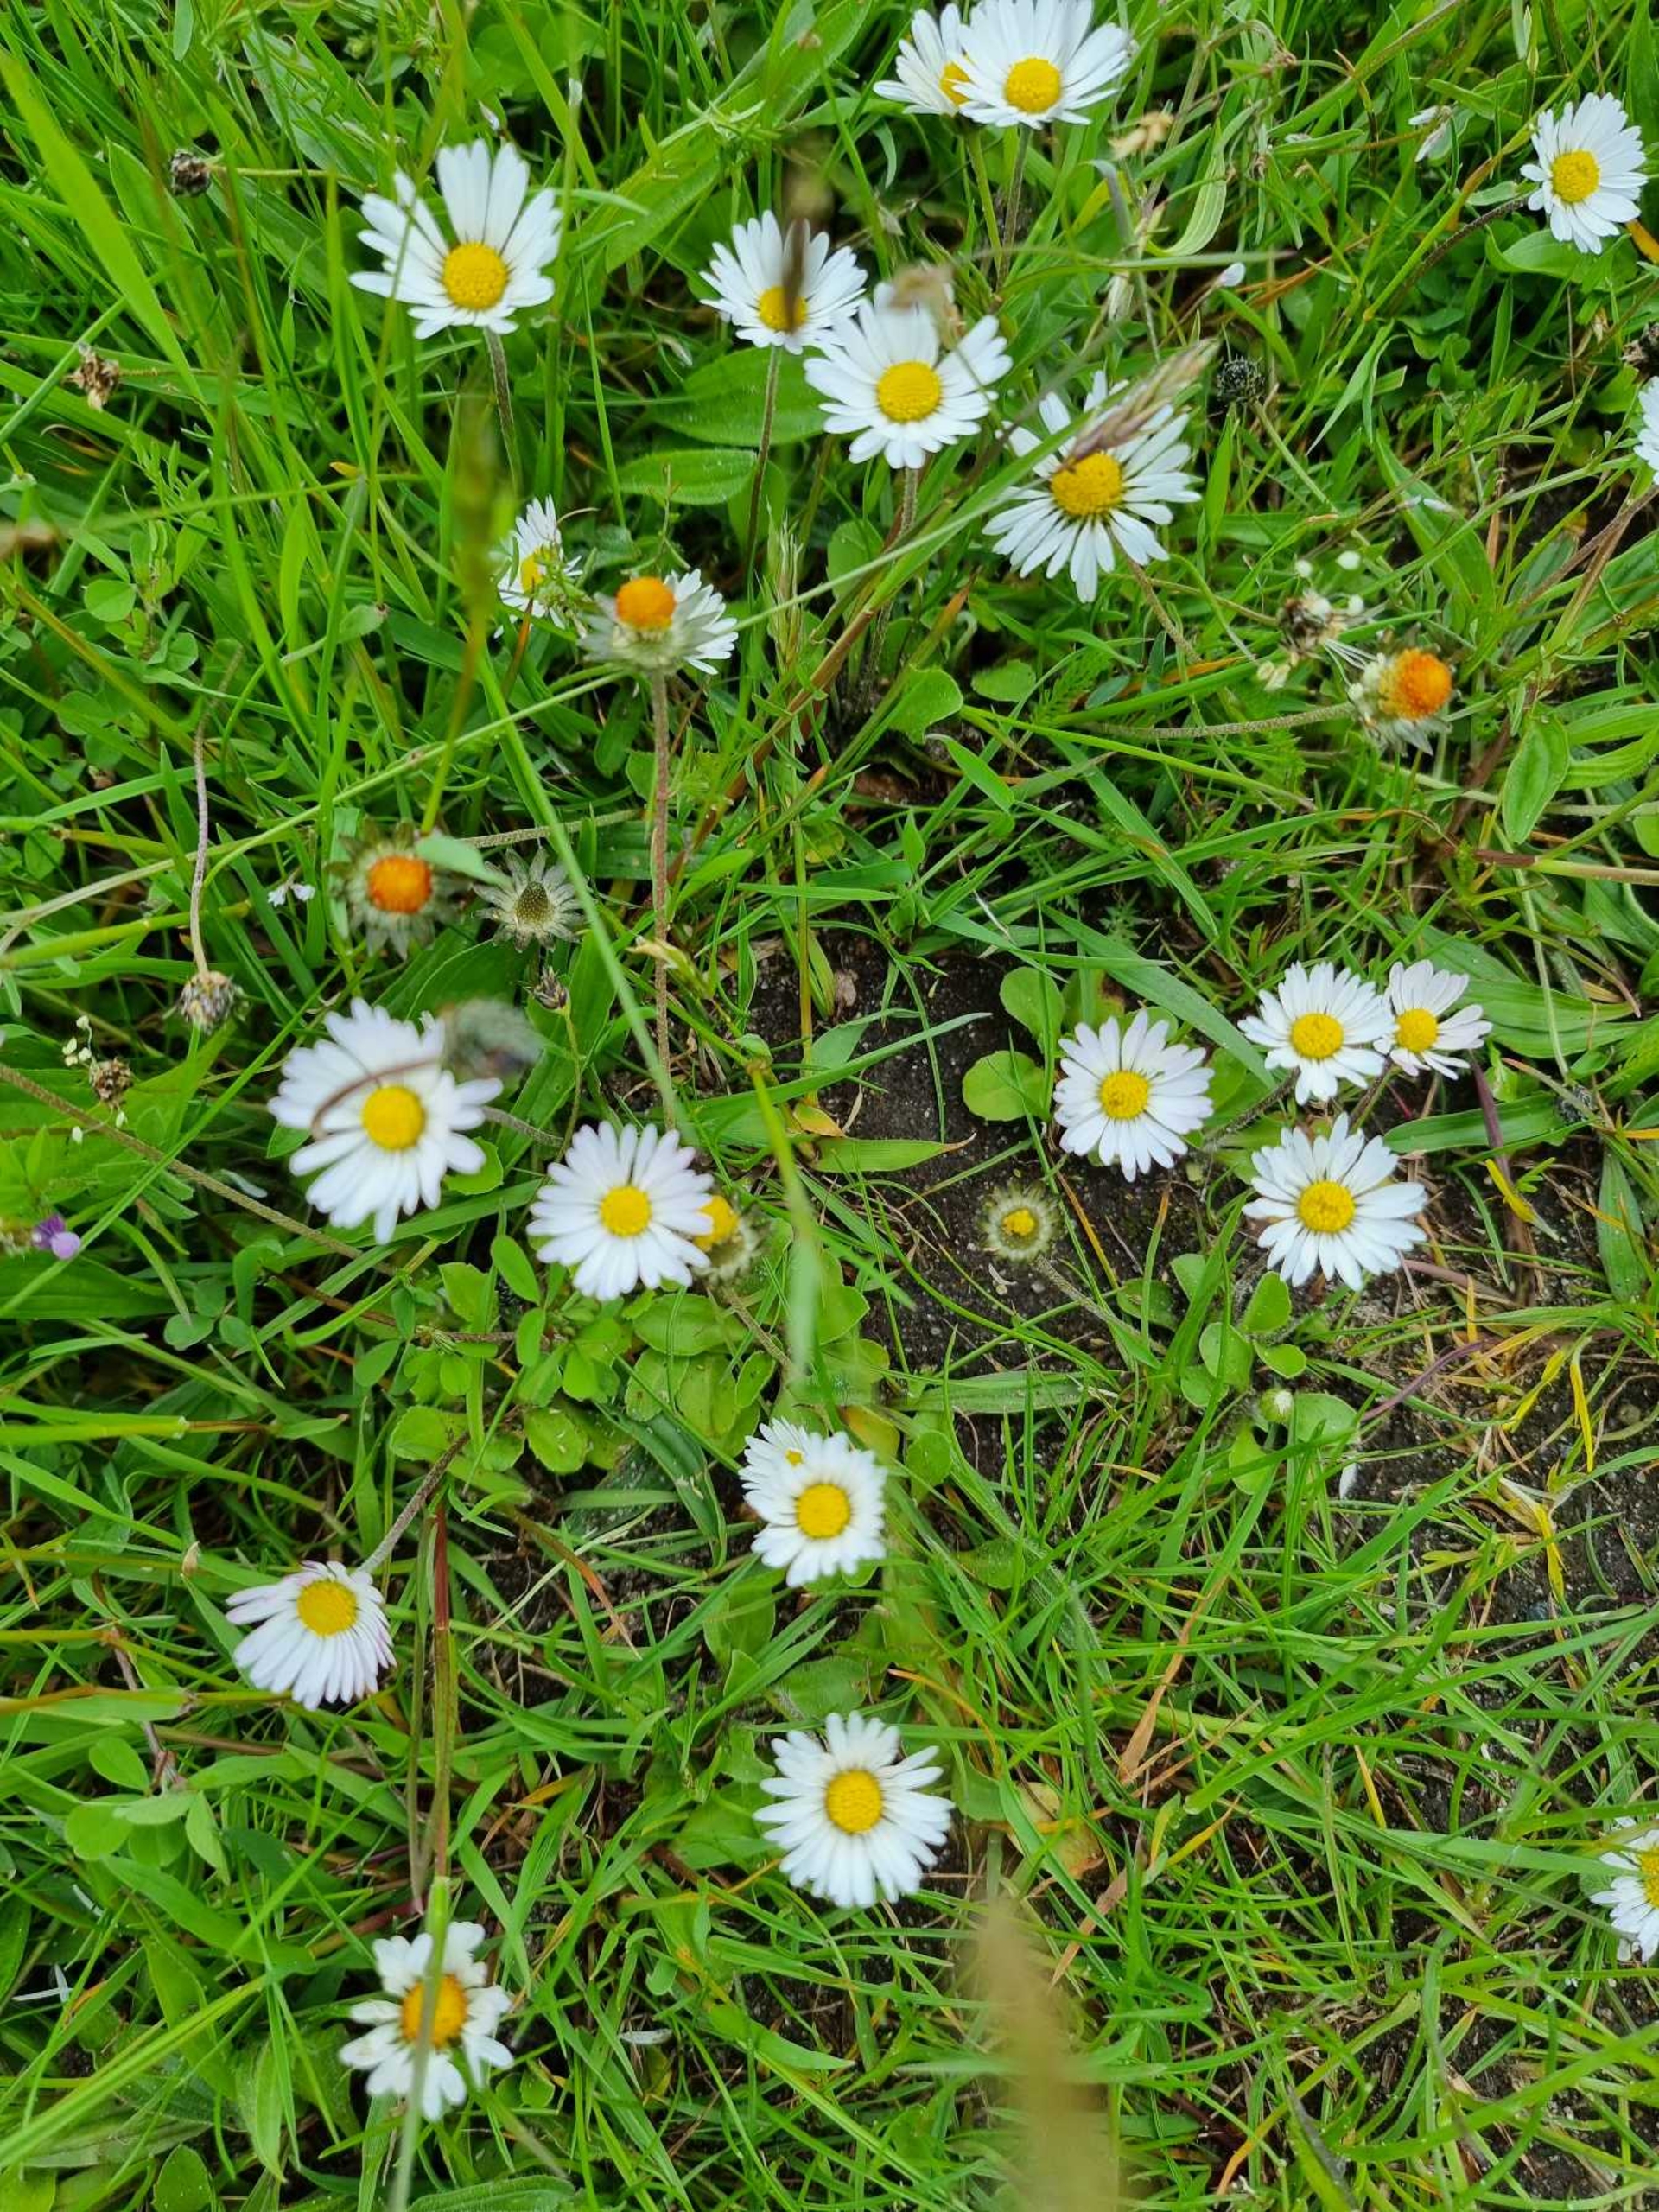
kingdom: Plantae
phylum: Tracheophyta
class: Magnoliopsida
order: Asterales
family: Asteraceae
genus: Bellis
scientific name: Bellis perennis
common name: Tusindfryd
